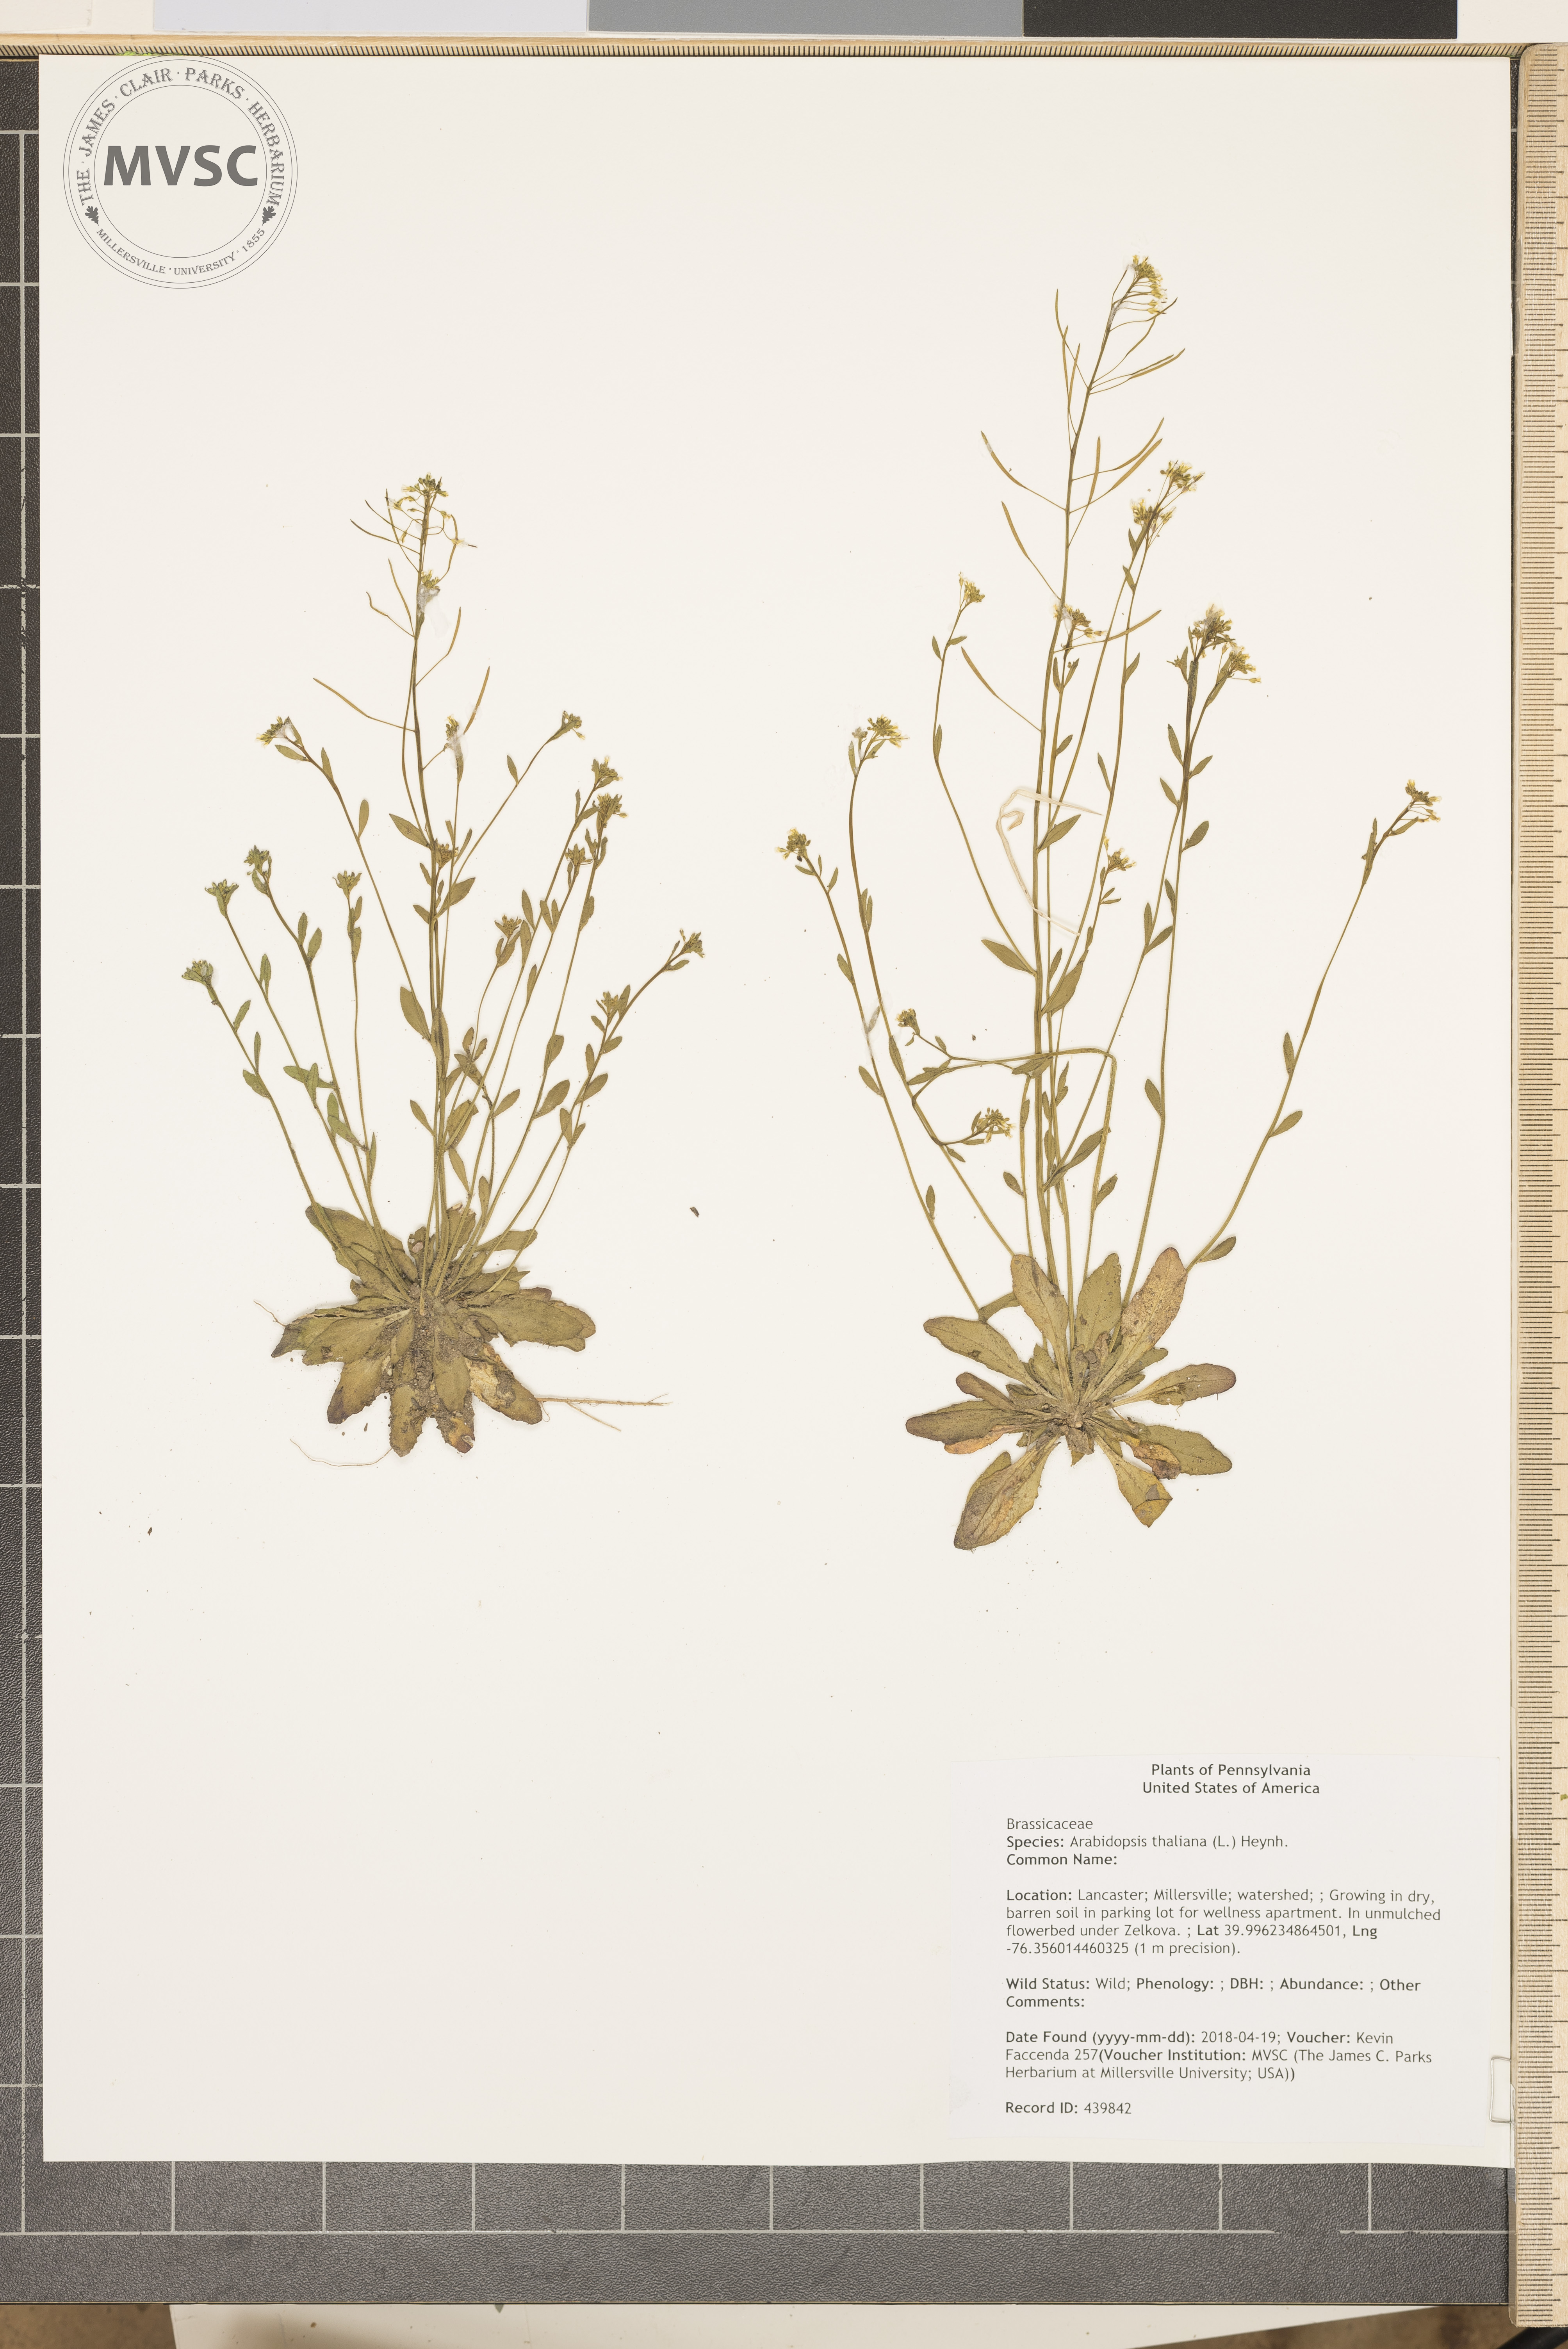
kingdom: Plantae
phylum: Tracheophyta
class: Magnoliopsida
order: Brassicales
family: Brassicaceae
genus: Arabidopsis
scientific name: Arabidopsis thaliana
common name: Thale cress
